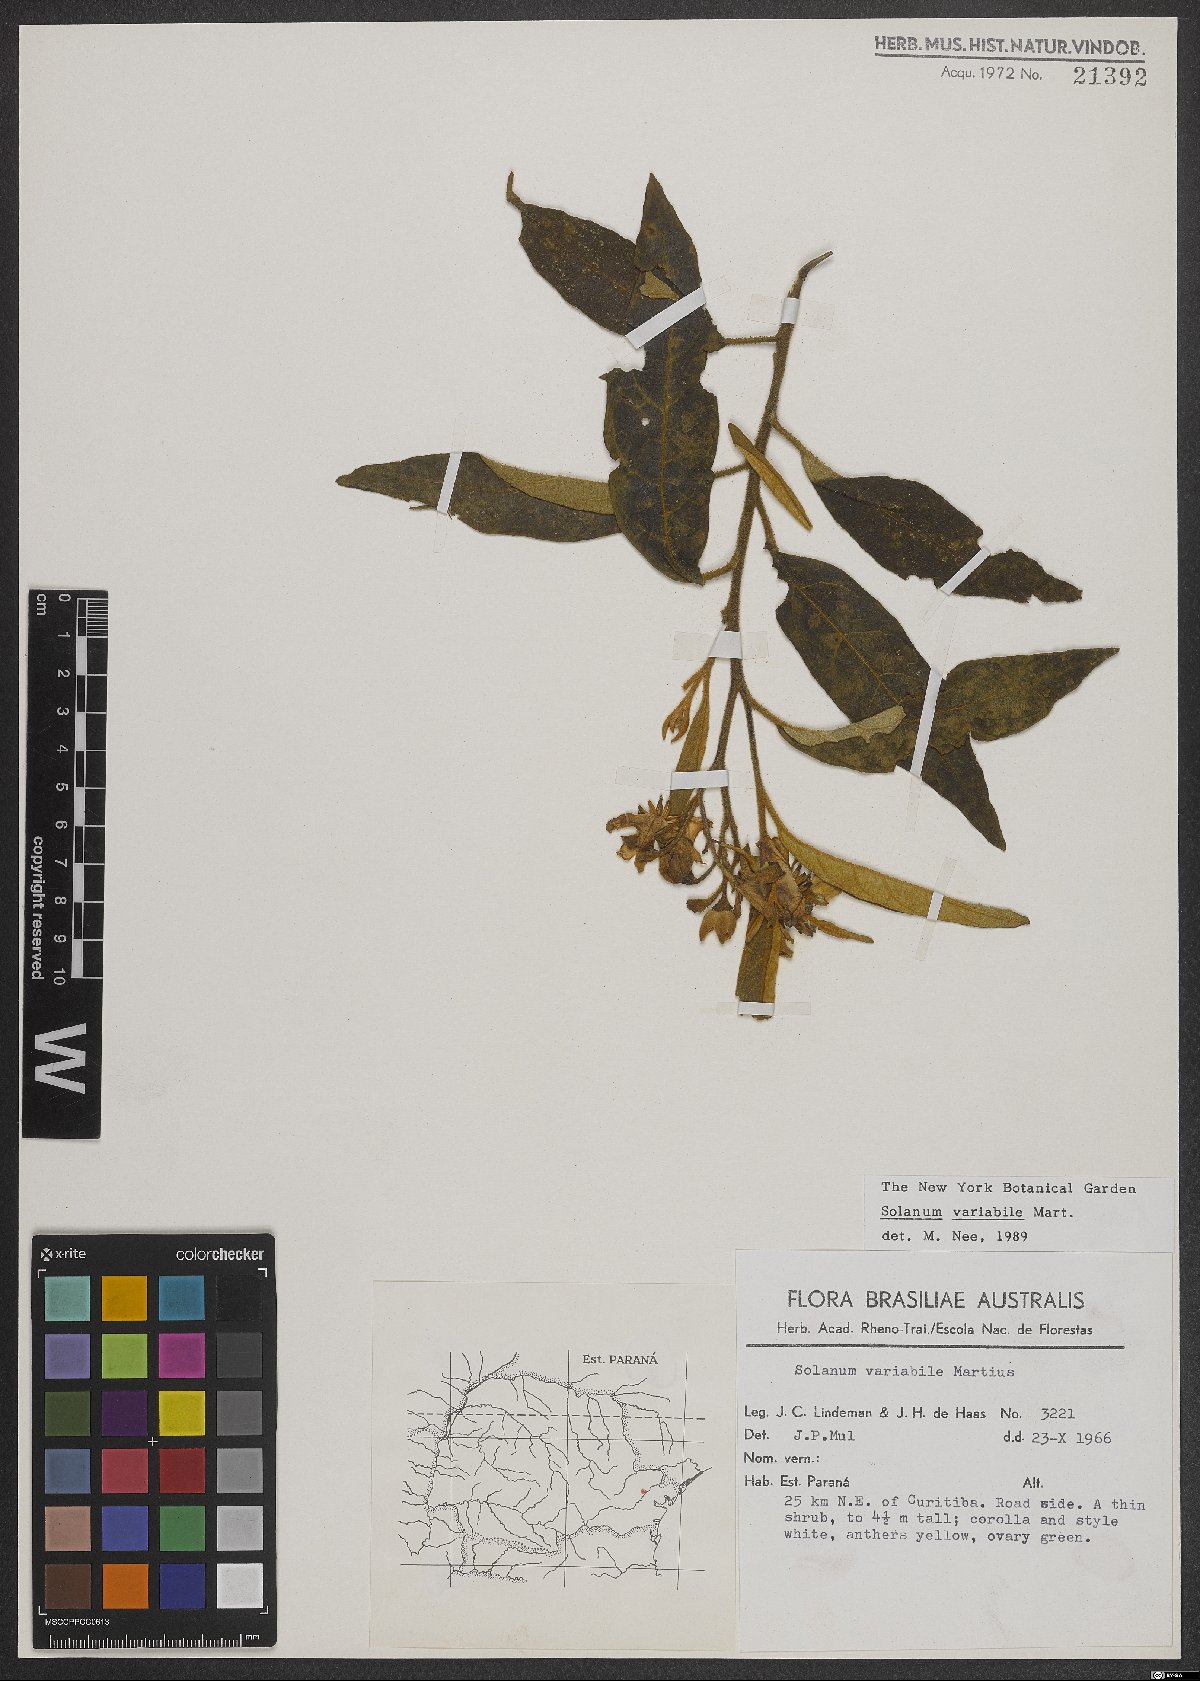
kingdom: Plantae
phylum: Tracheophyta
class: Magnoliopsida
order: Solanales
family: Solanaceae
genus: Solanum
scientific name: Solanum variabile
